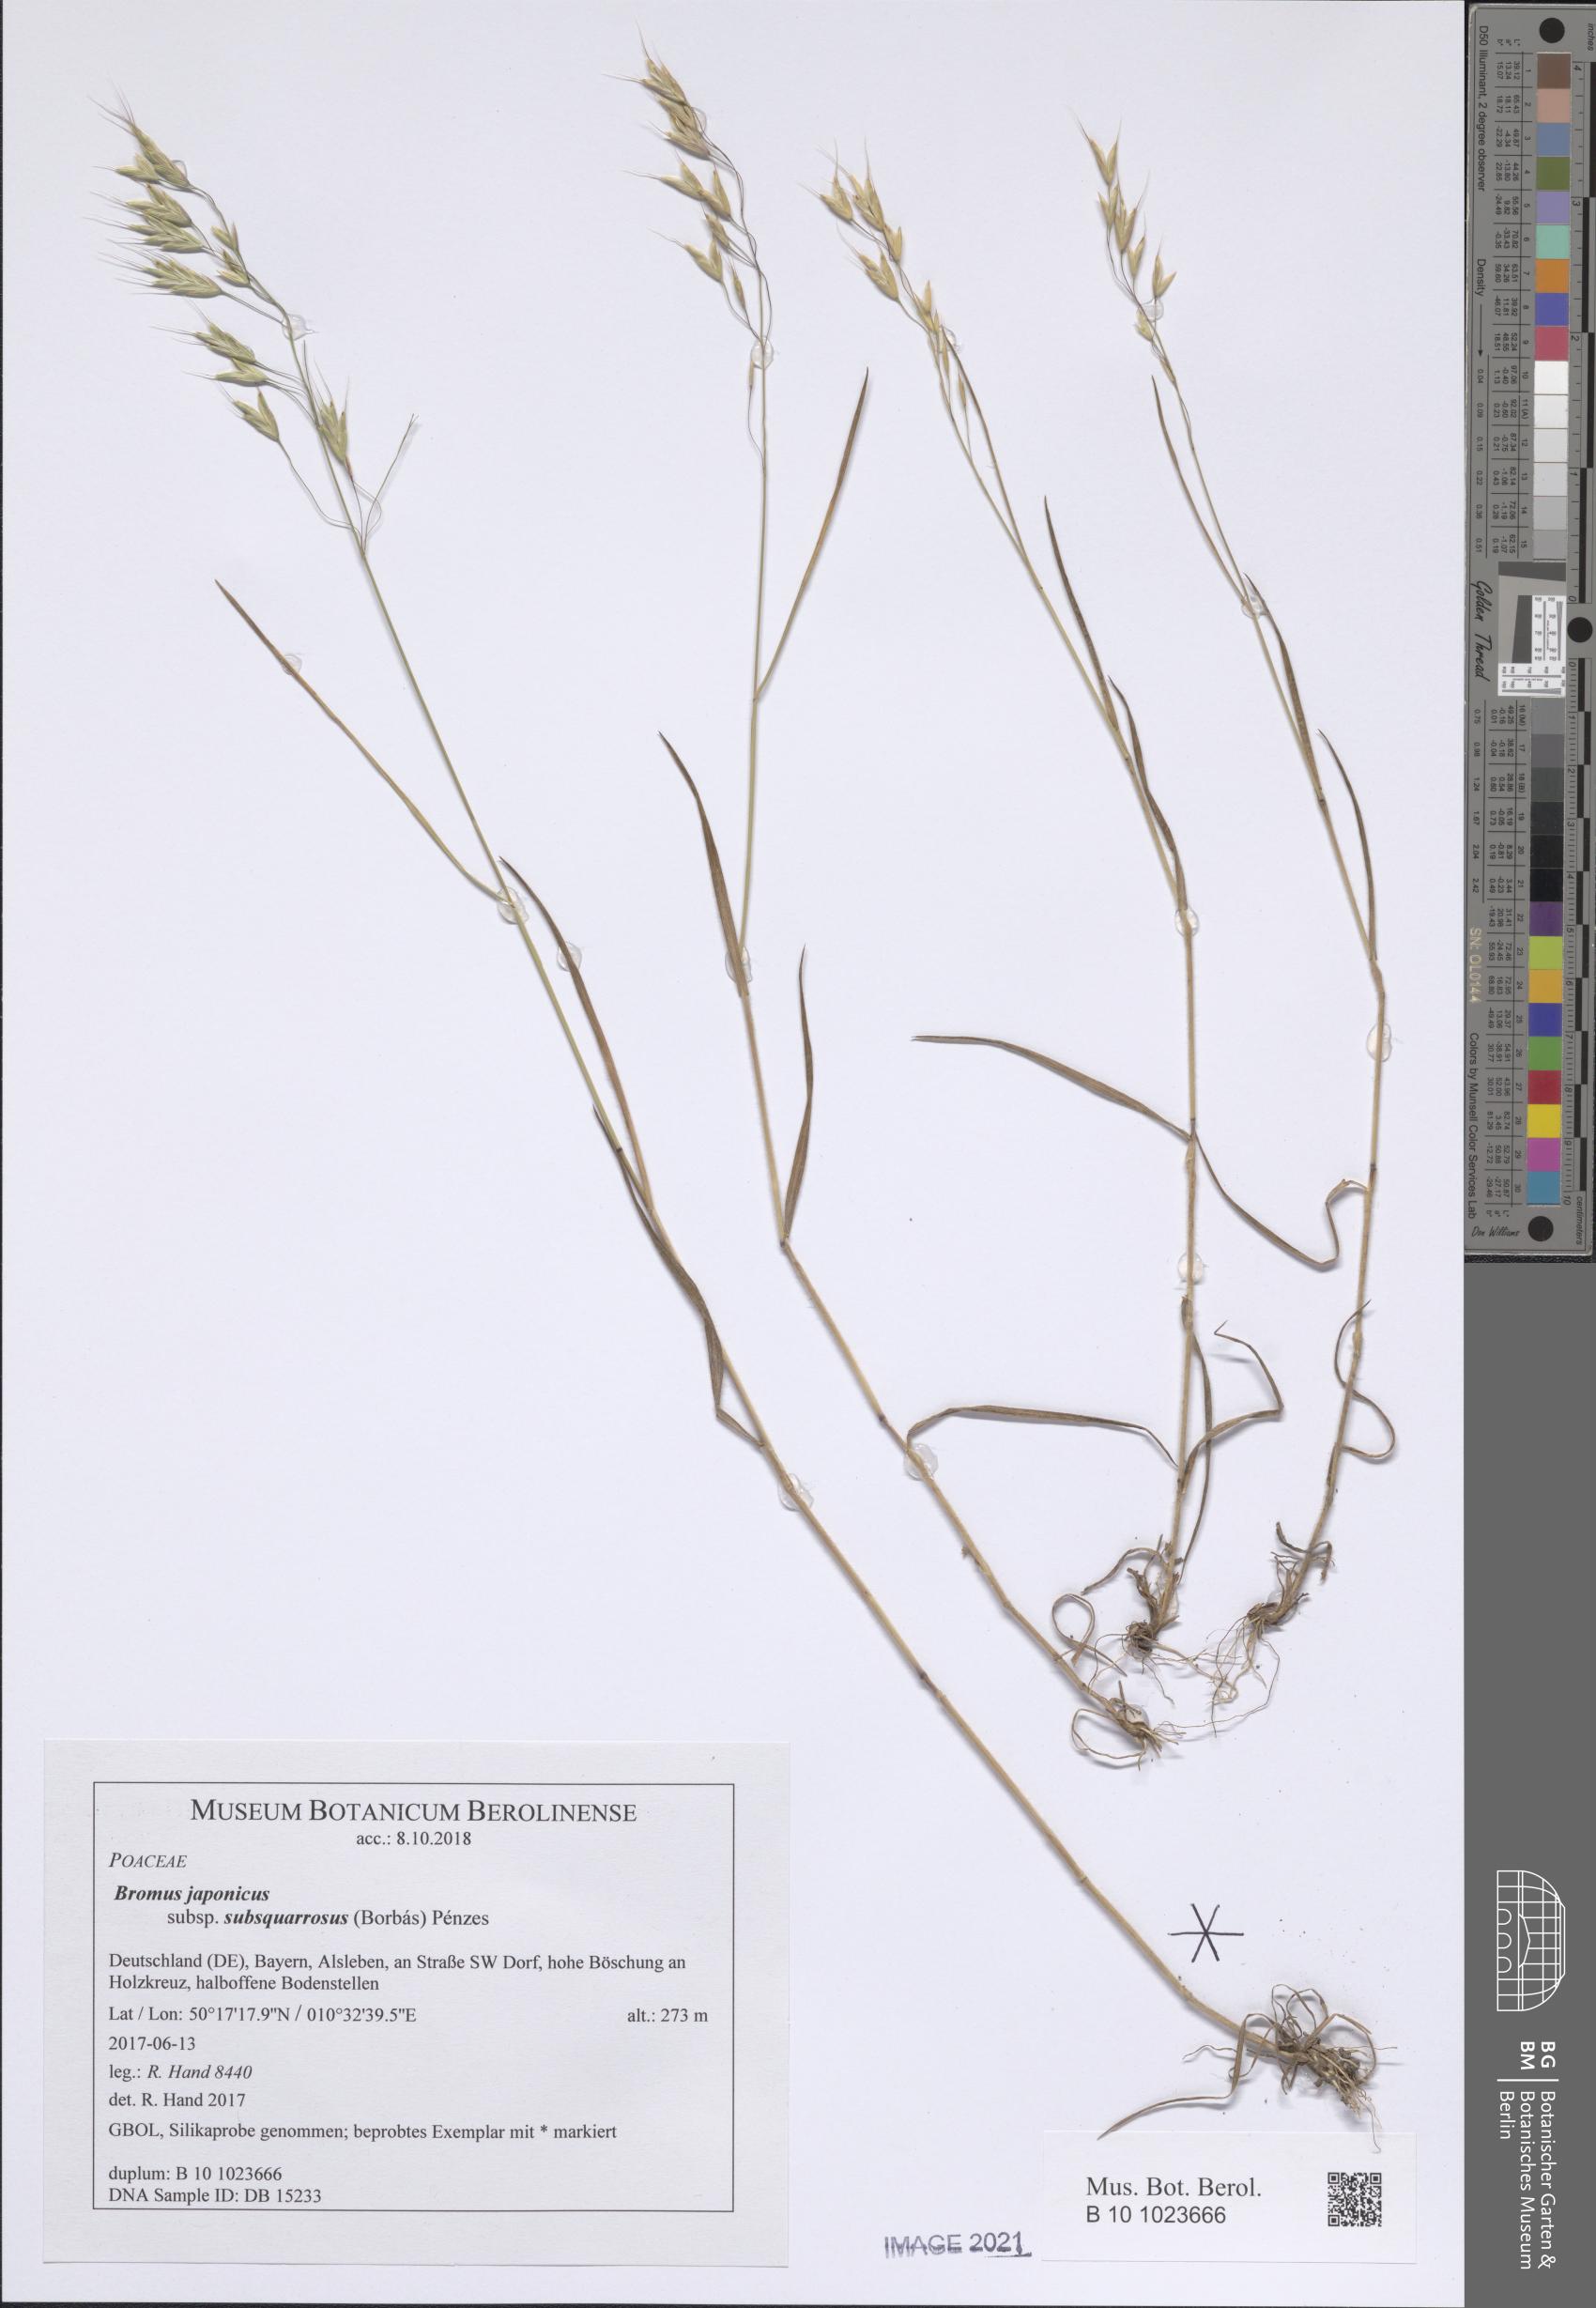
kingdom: Plantae
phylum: Tracheophyta
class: Liliopsida
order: Poales
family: Poaceae
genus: Bromus
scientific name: Bromus japonicus
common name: Japanese brome
